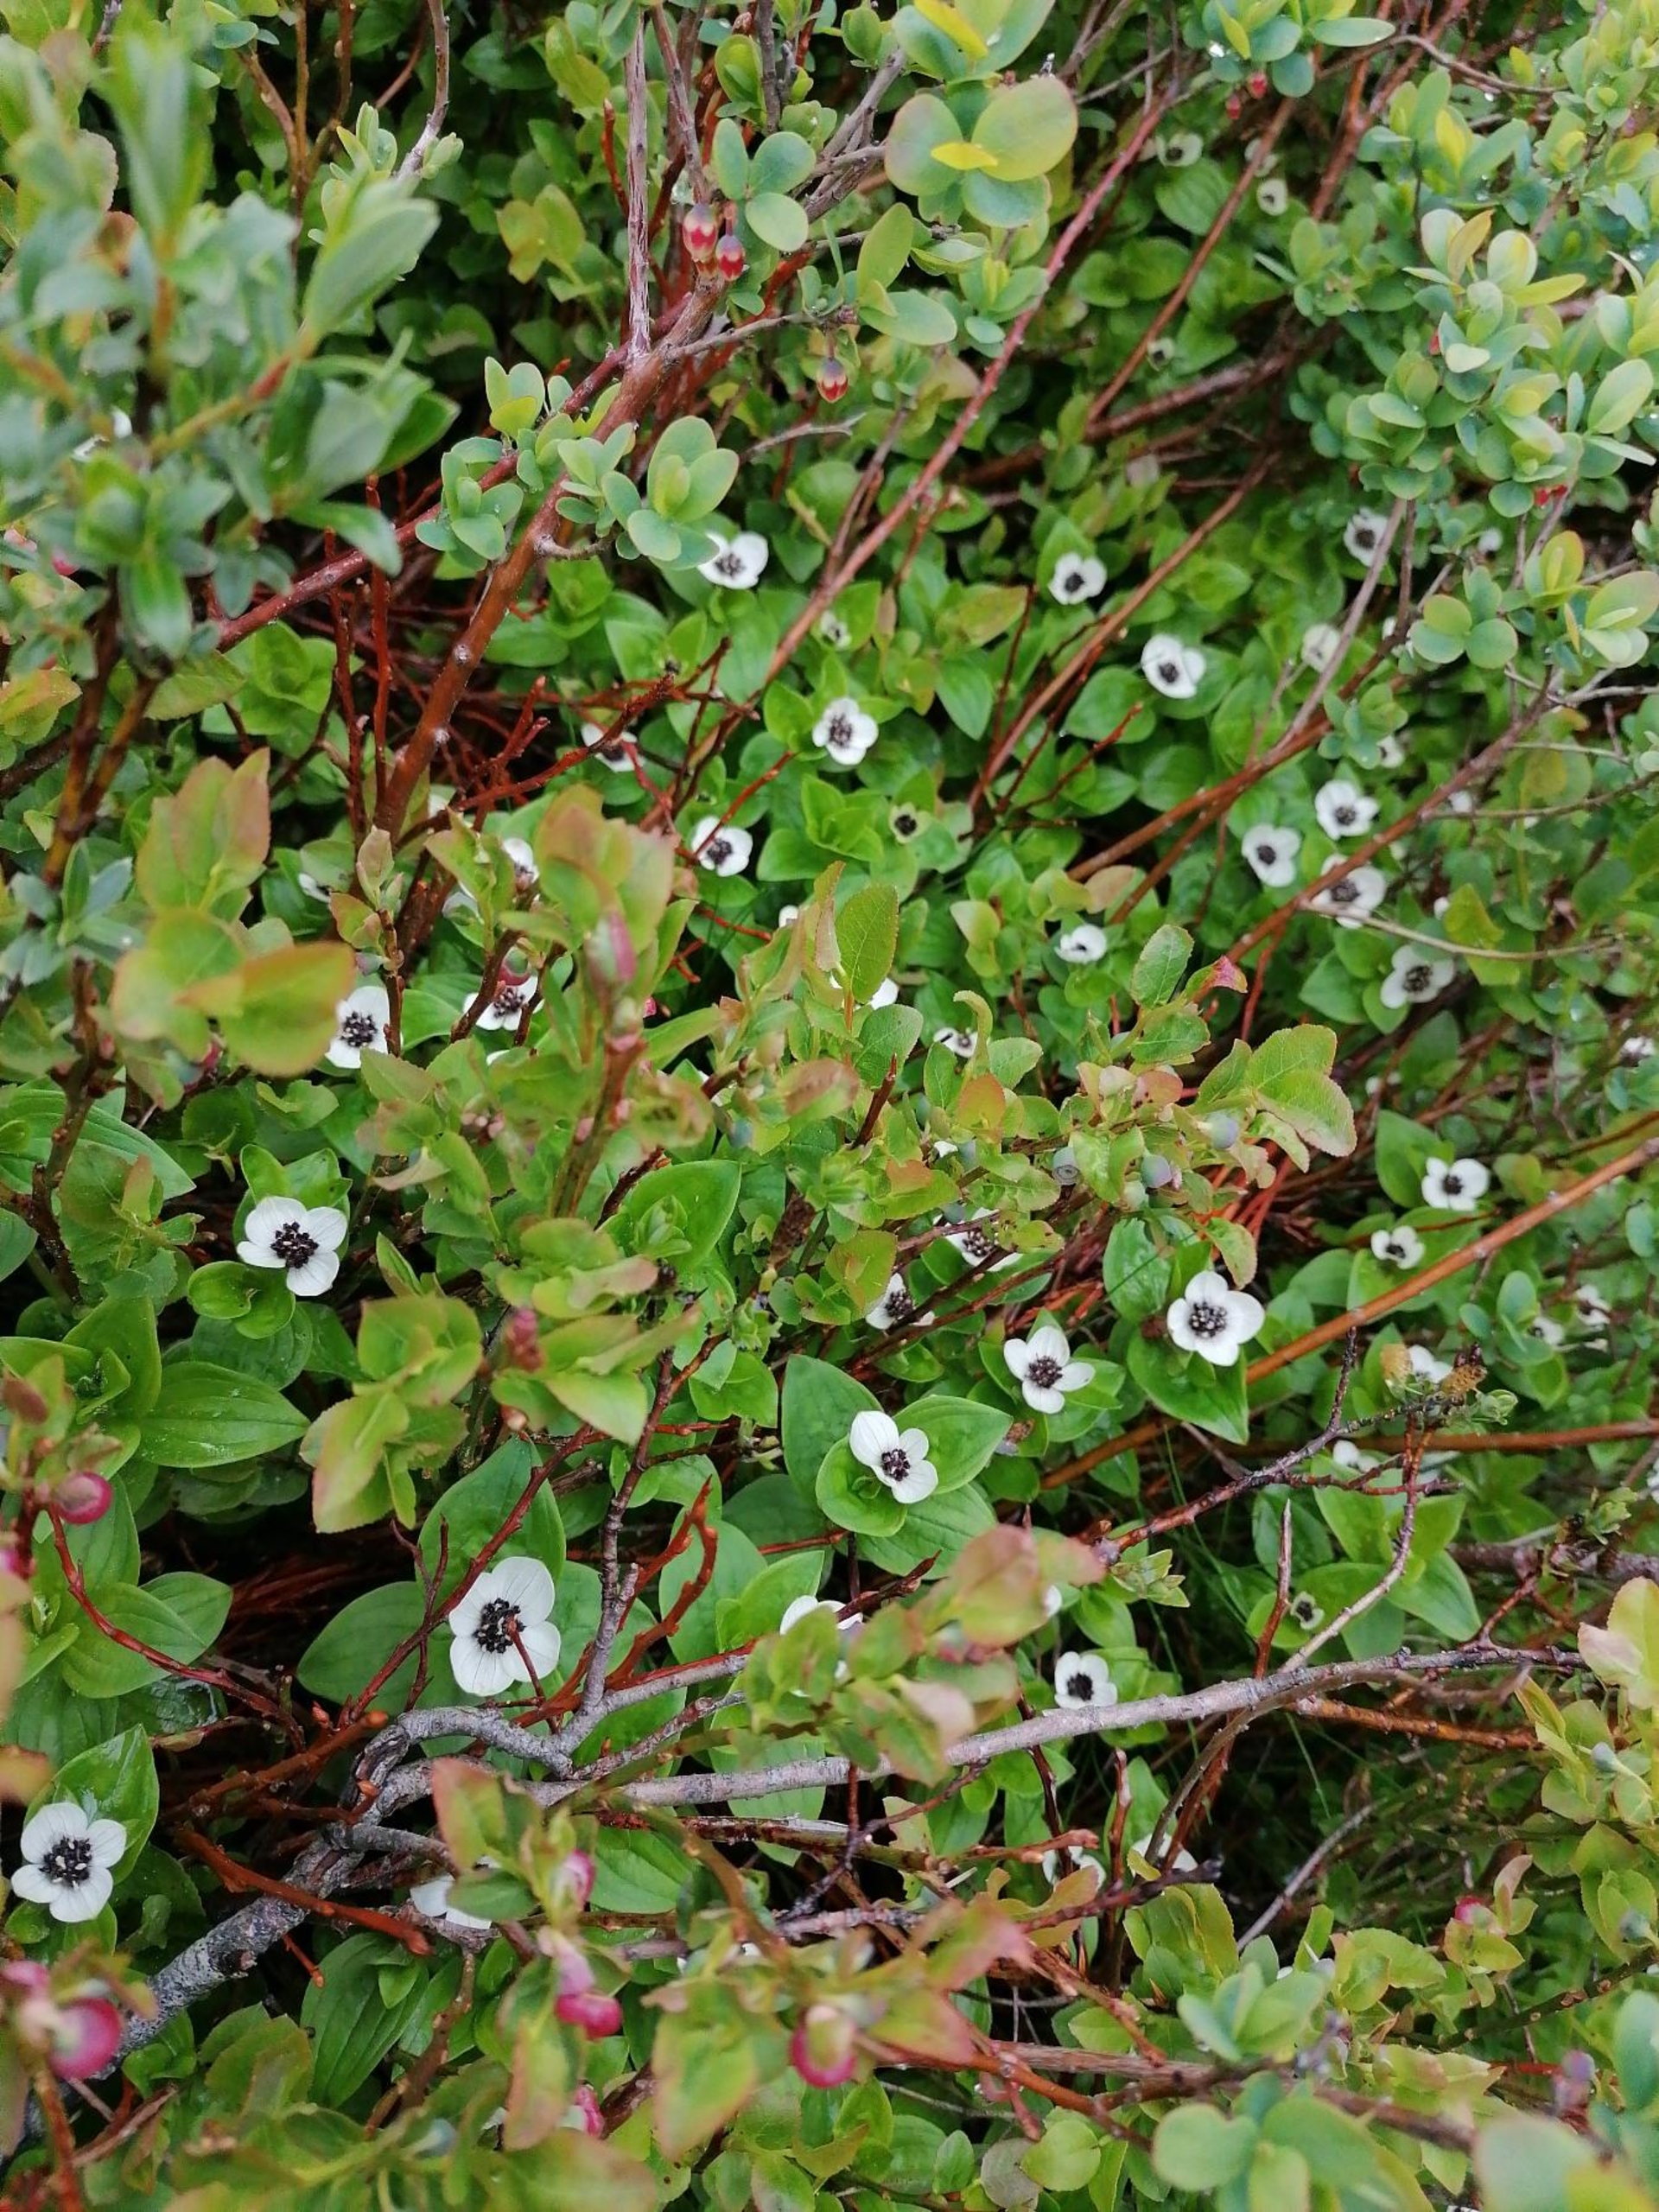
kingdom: Plantae
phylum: Tracheophyta
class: Magnoliopsida
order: Cornales
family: Cornaceae
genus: Cornus
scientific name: Cornus suecica
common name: Hønsebær
